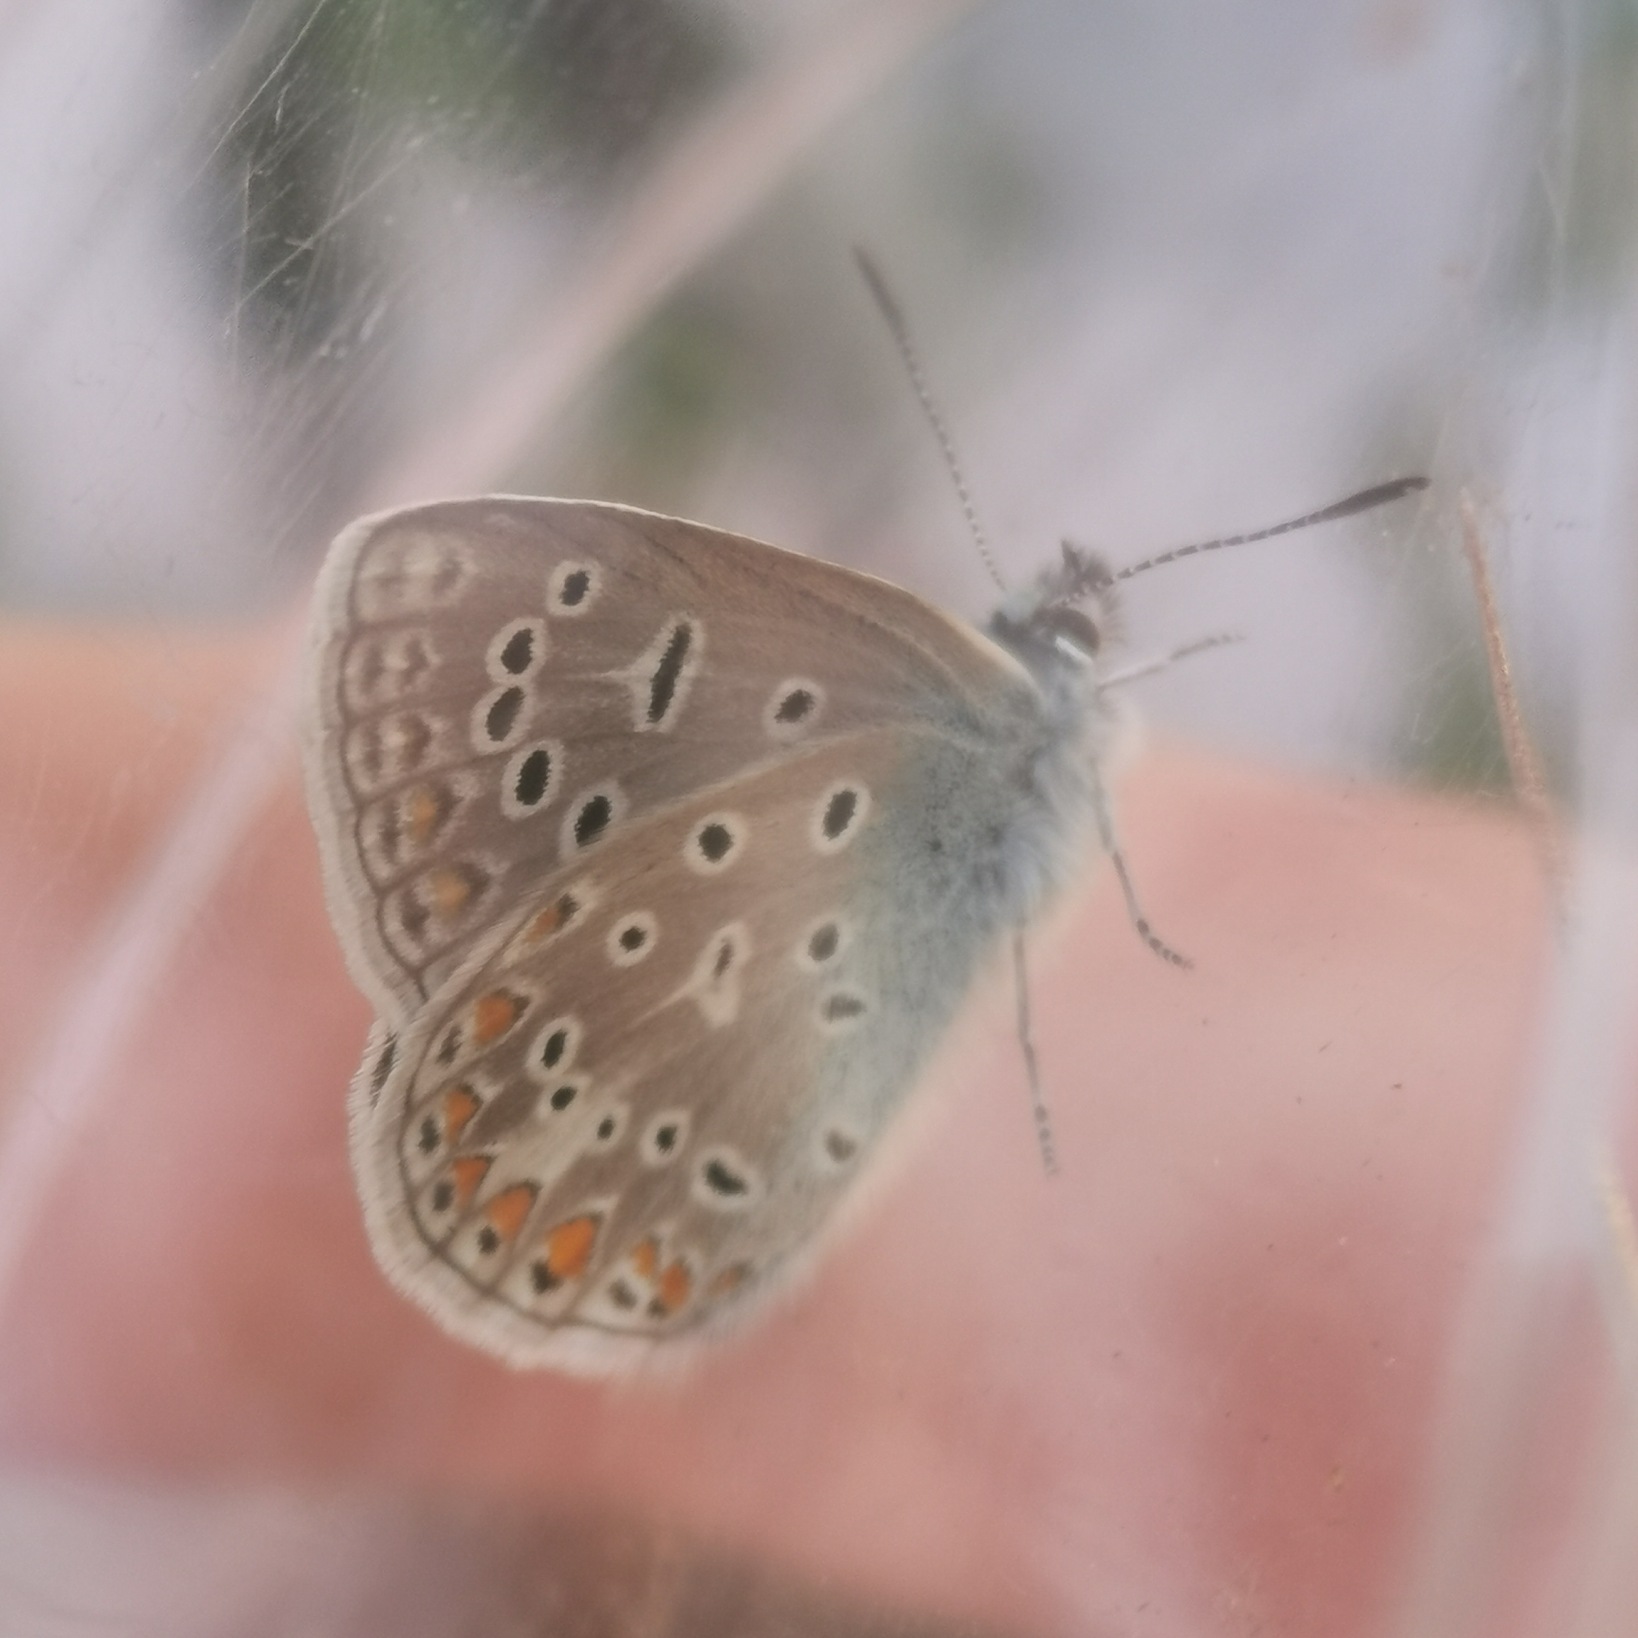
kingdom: Animalia
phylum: Arthropoda
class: Insecta
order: Lepidoptera
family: Lycaenidae
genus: Polyommatus
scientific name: Polyommatus icarus
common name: Almindelig blåfugl
